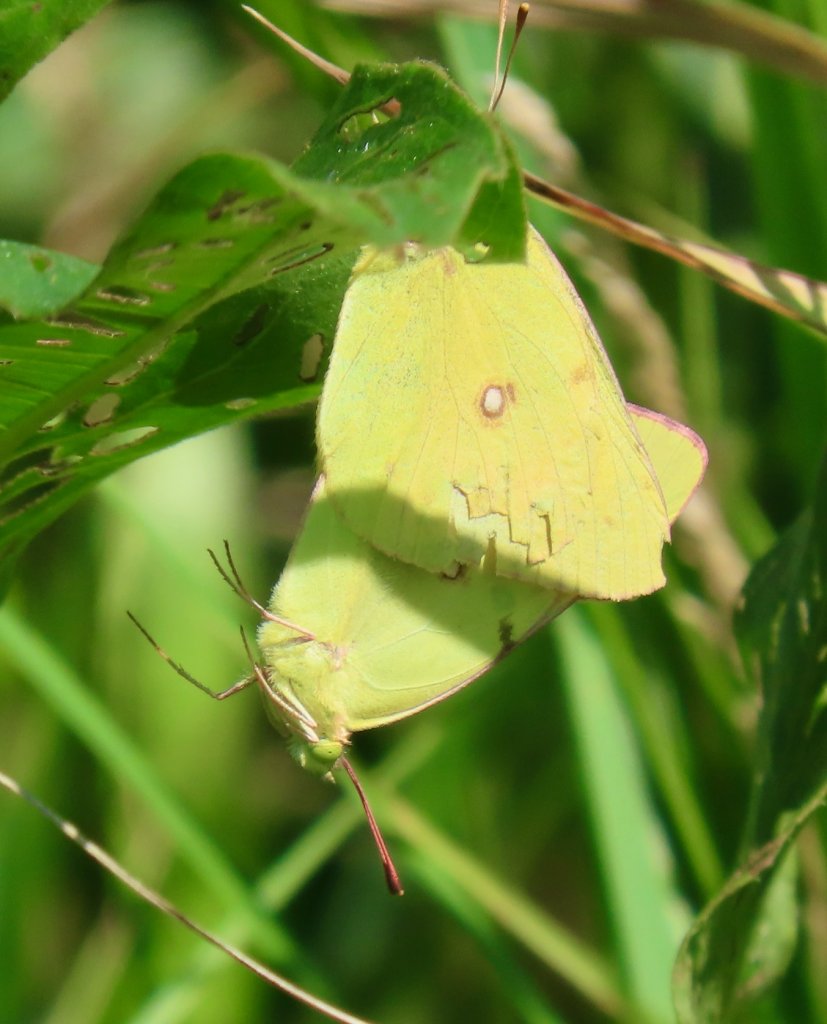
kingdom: Animalia
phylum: Arthropoda
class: Insecta
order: Lepidoptera
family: Pieridae
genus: Colias
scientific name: Colias philodice
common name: Clouded Sulphur
